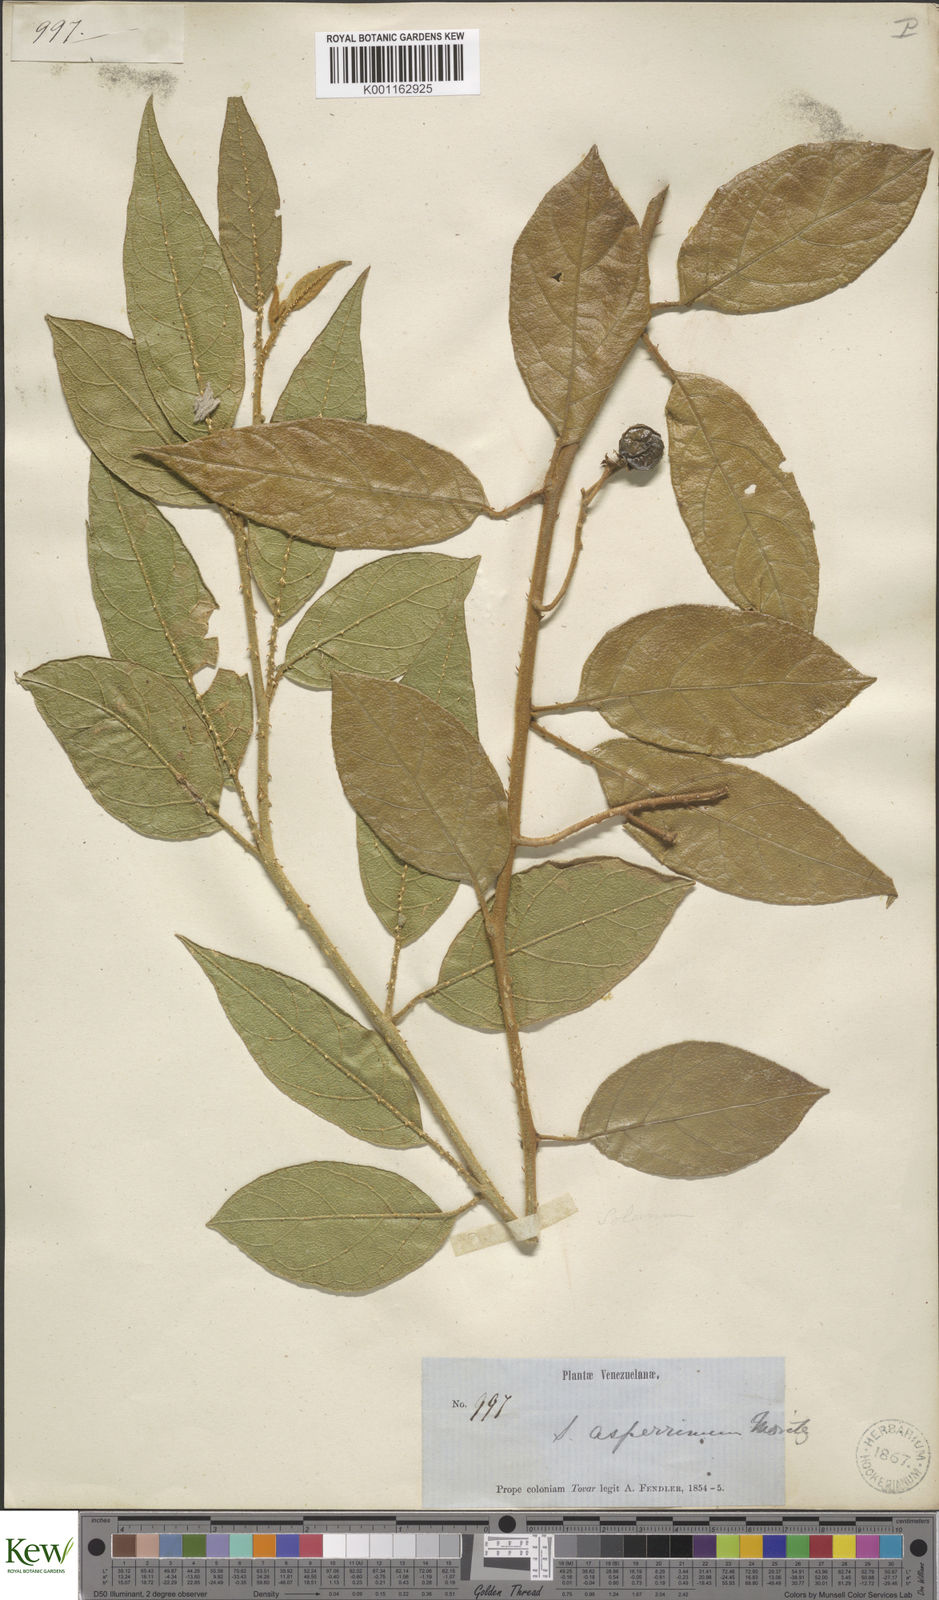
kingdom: Plantae
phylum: Tracheophyta
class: Magnoliopsida
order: Solanales
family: Solanaceae
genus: Solanum
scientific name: Solanum aturense
